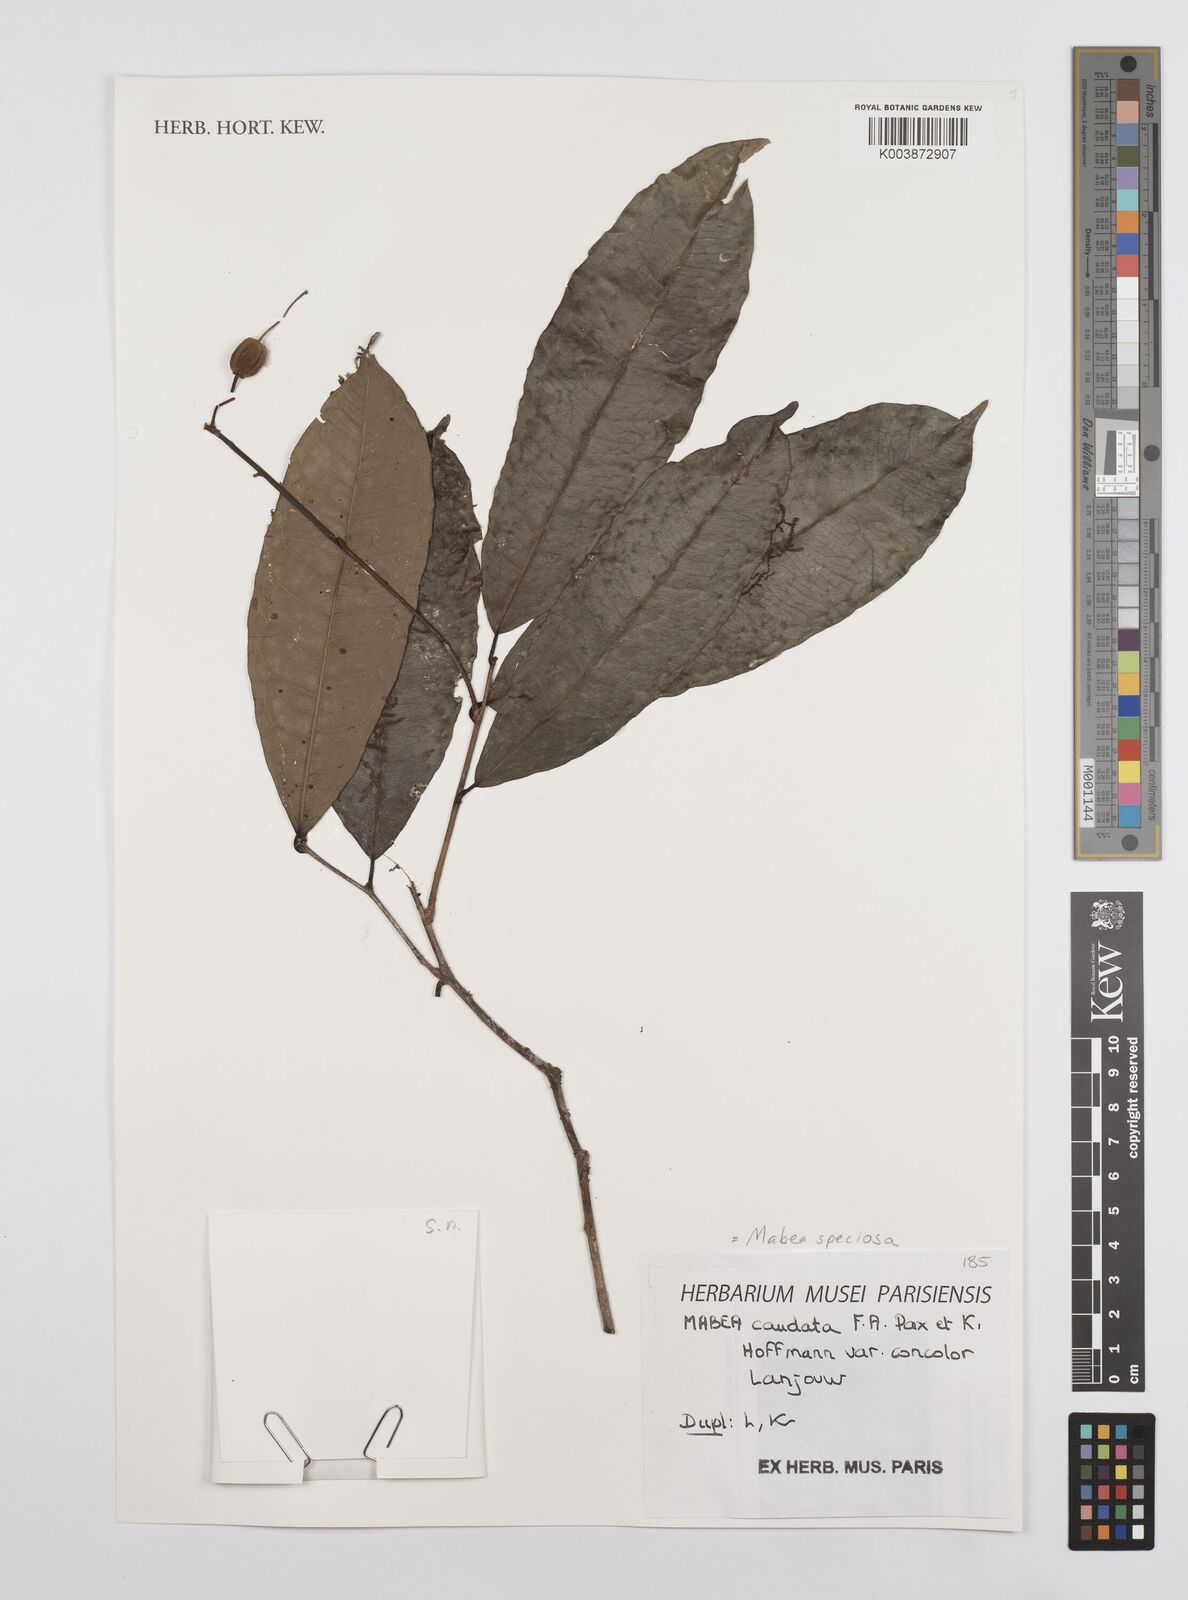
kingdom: Plantae
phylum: Tracheophyta
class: Magnoliopsida
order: Malpighiales
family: Euphorbiaceae
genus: Mabea
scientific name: Mabea speciosa
